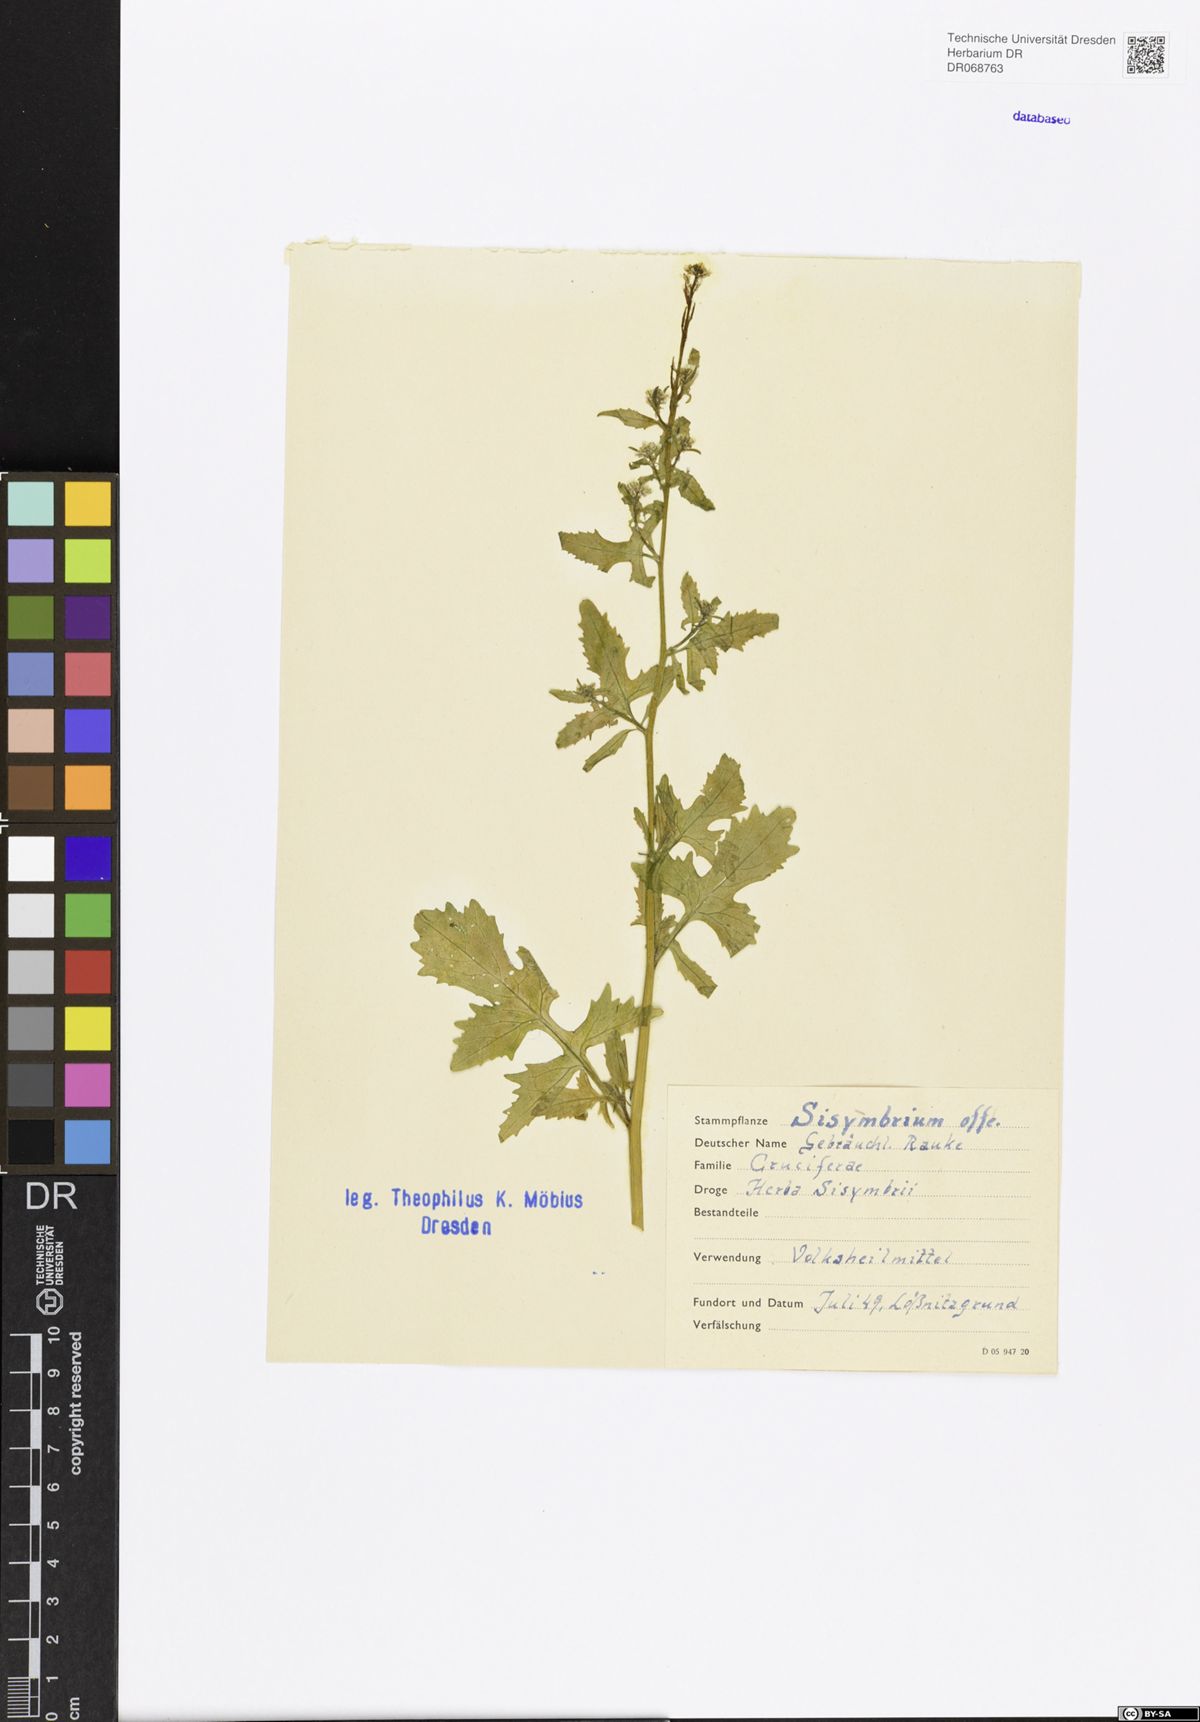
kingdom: Plantae
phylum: Tracheophyta
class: Magnoliopsida
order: Brassicales
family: Brassicaceae
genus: Sisymbrium
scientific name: Sisymbrium officinale
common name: Hedge mustard
